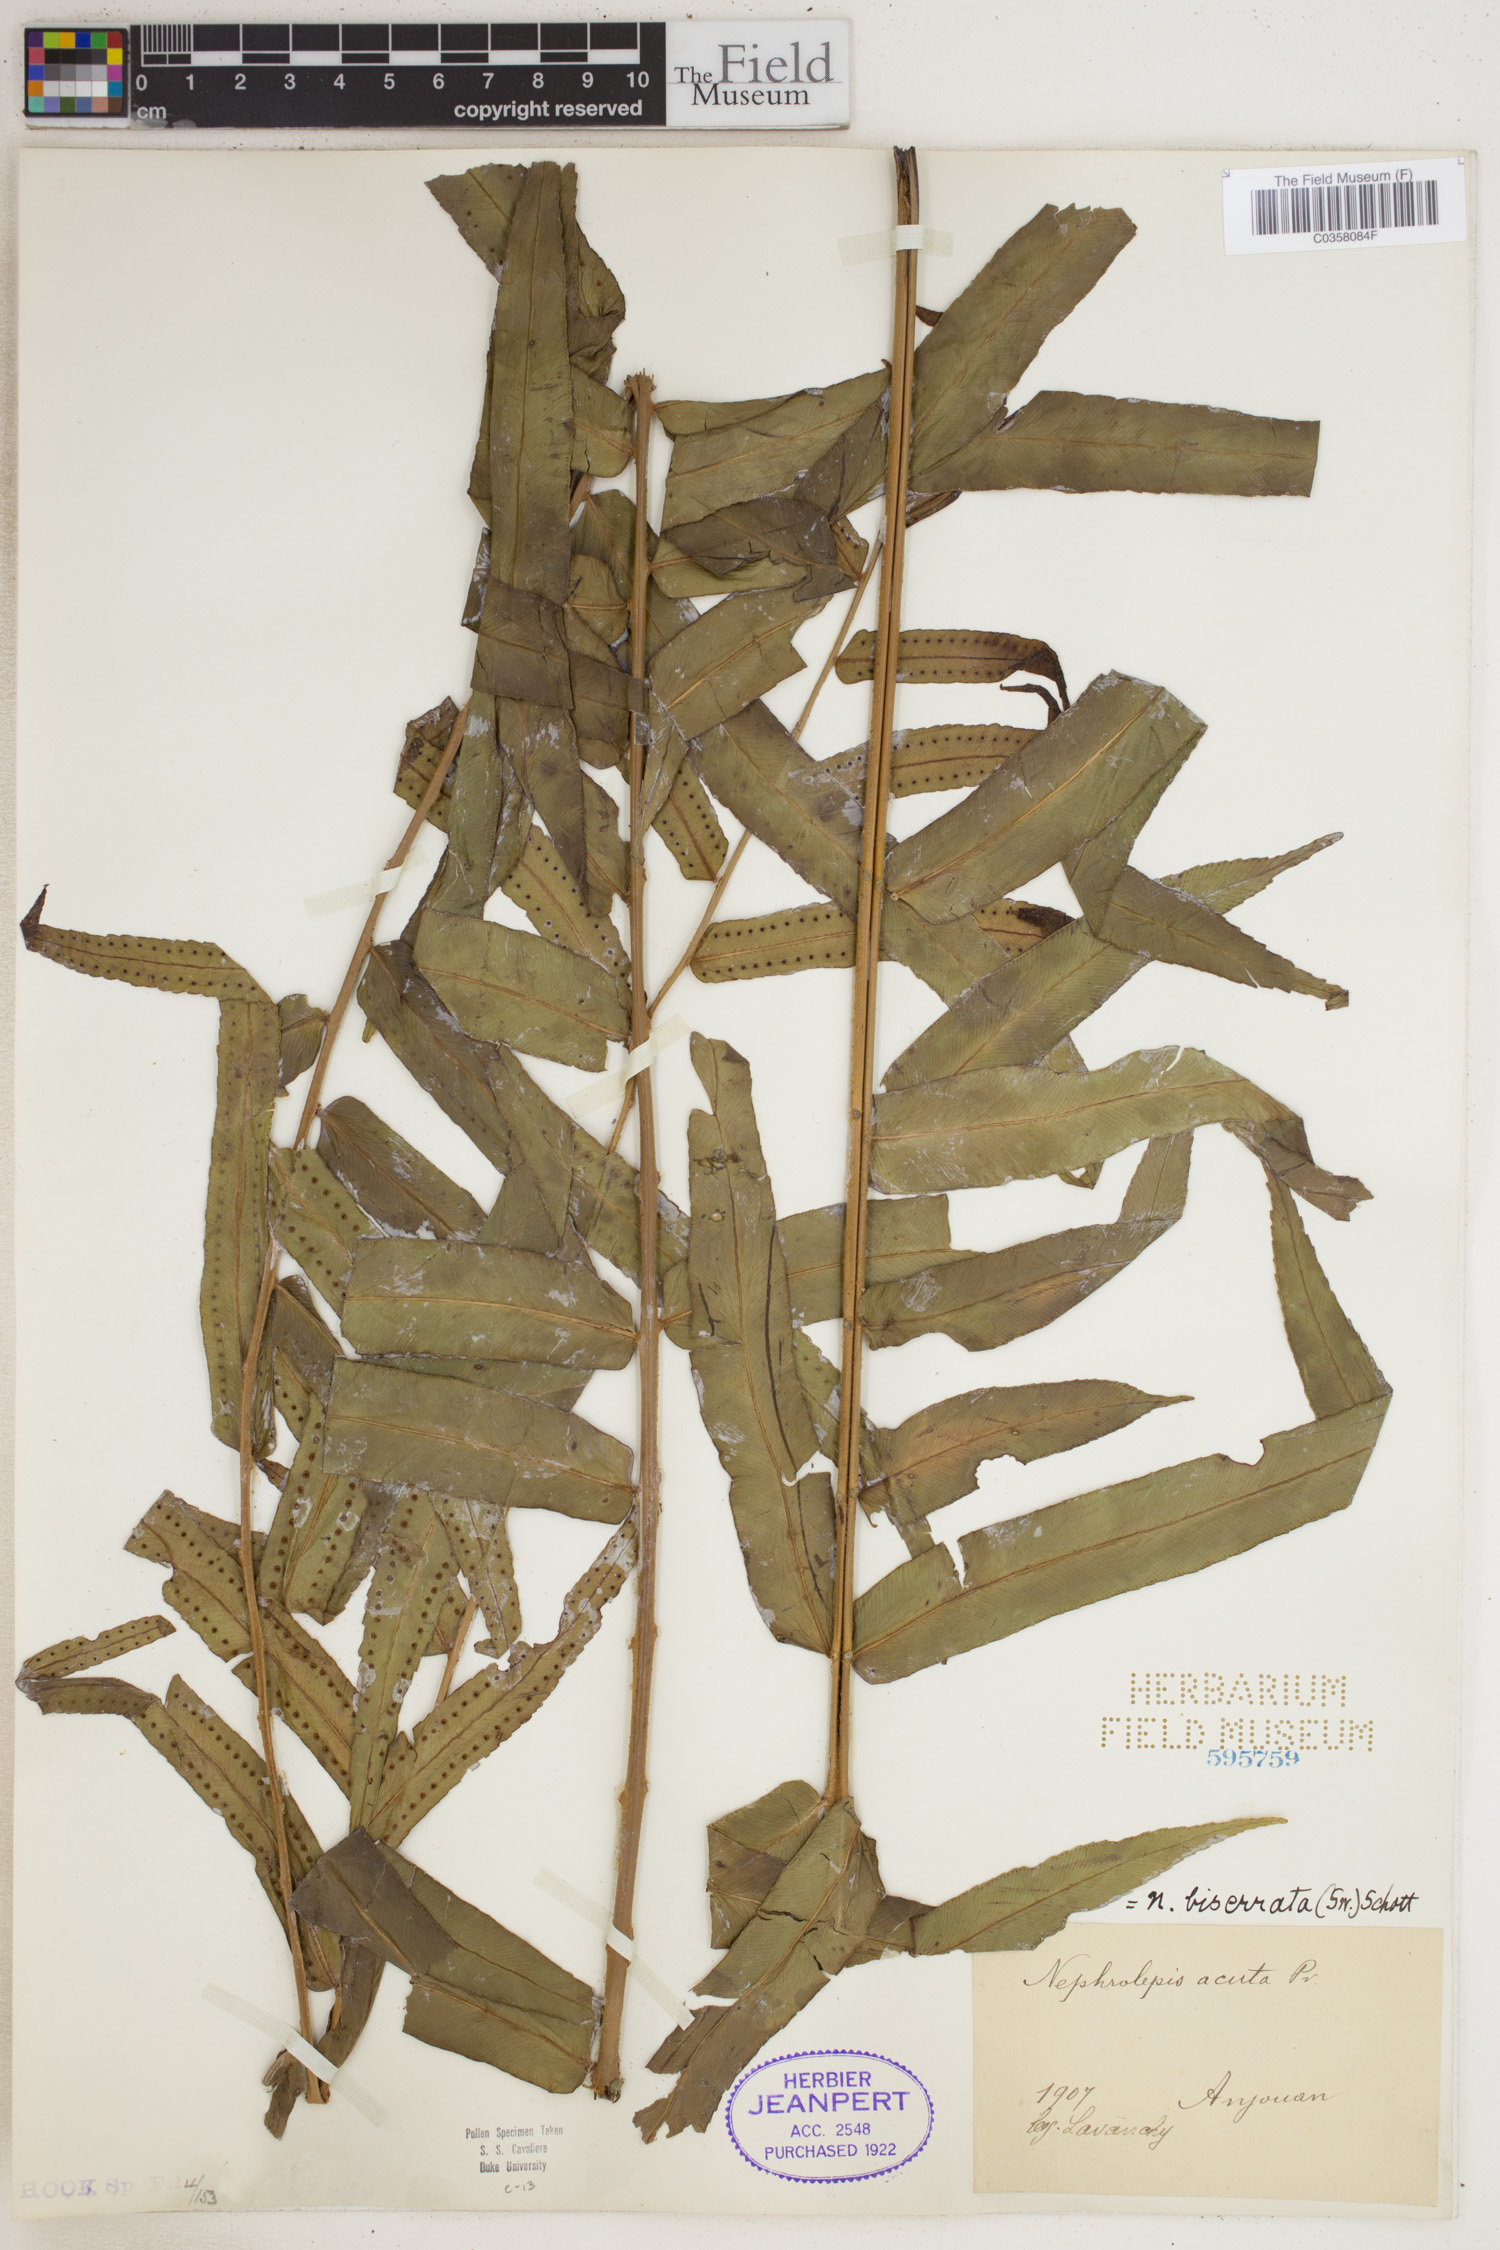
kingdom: Plantae
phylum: Tracheophyta
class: Polypodiopsida
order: Polypodiales
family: Nephrolepidaceae
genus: Nephrolepis
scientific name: Nephrolepis biserrata
